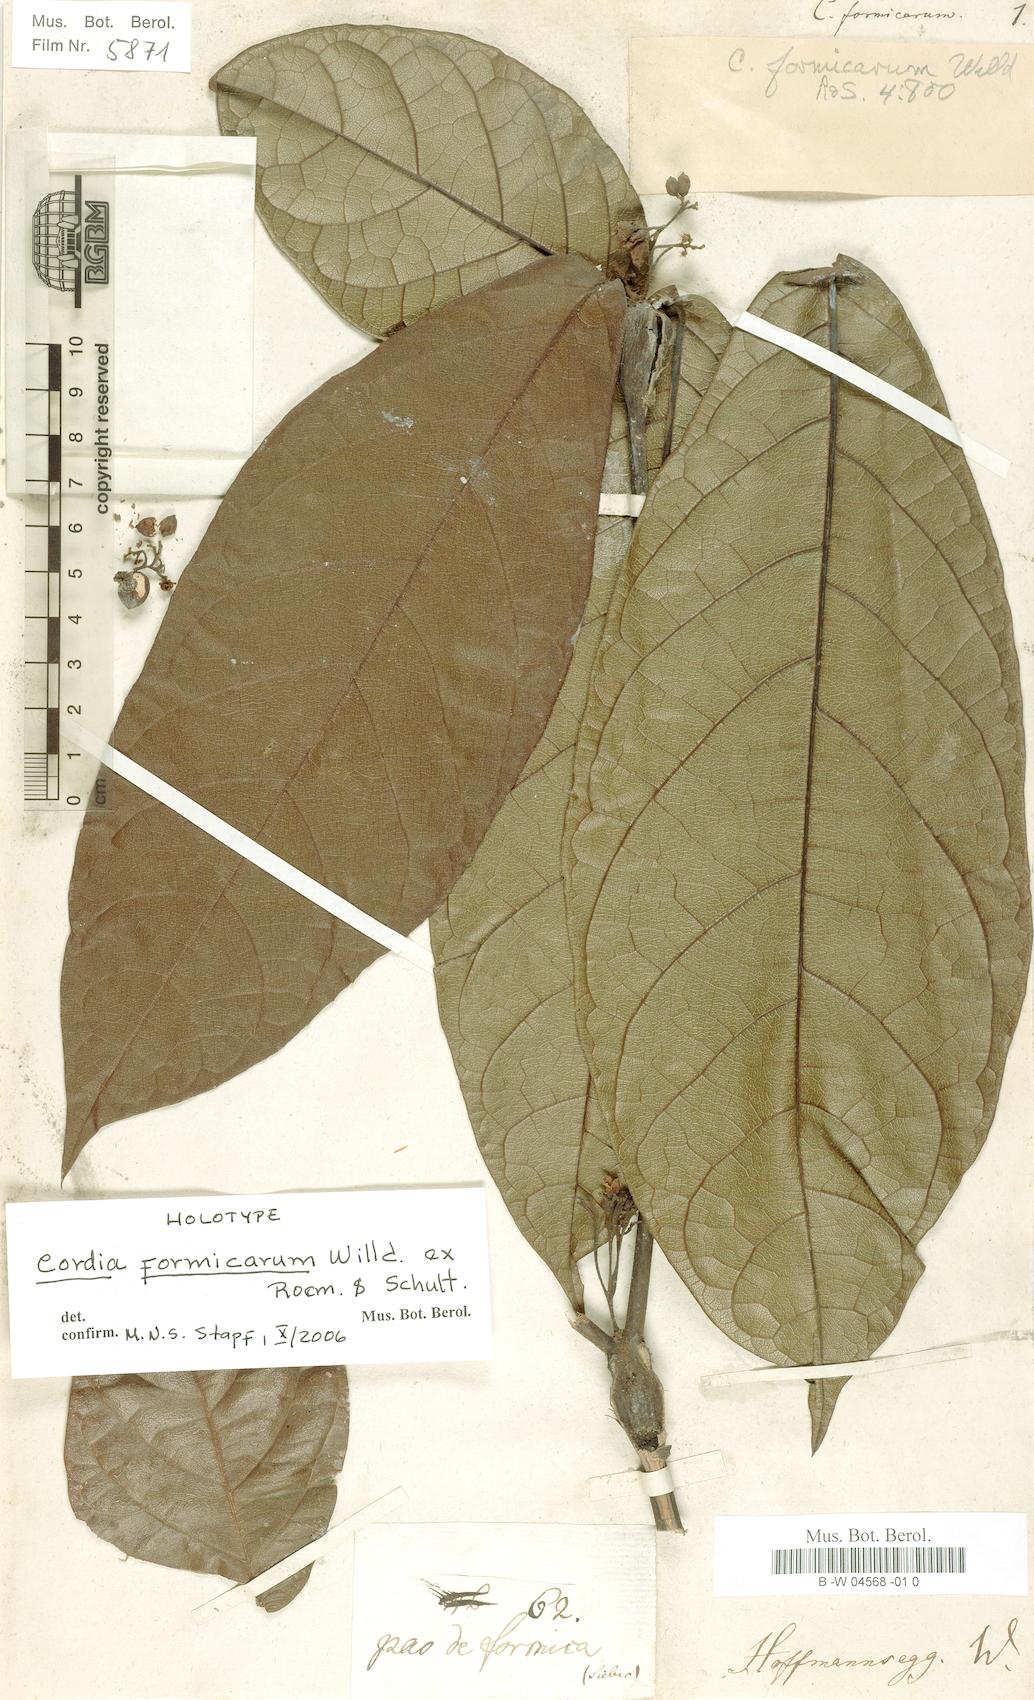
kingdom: Plantae
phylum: Tracheophyta
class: Magnoliopsida
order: Boraginales
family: Cordiaceae
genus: Cordia
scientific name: Cordia nodosa
